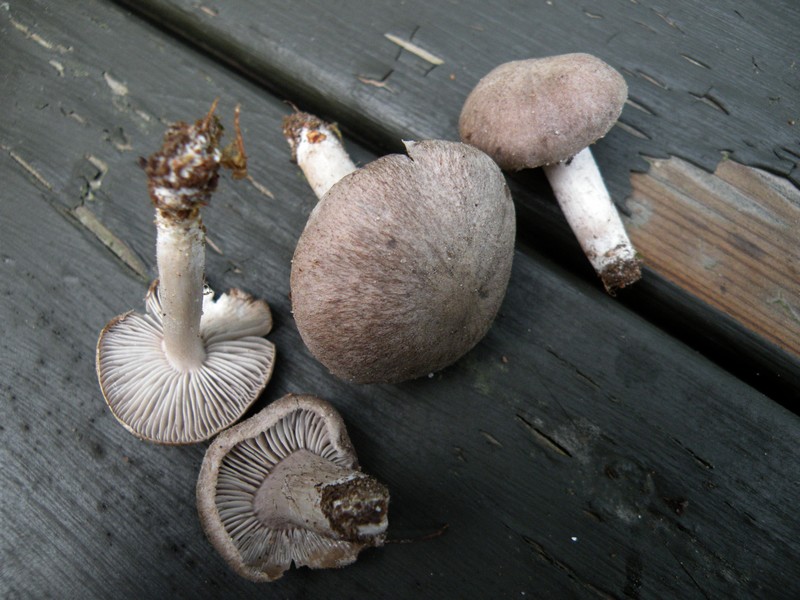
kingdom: Fungi
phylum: Basidiomycota
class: Agaricomycetes
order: Agaricales
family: Tricholomataceae
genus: Tricholoma
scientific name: Tricholoma terreum
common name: jordfarvet ridderhat
